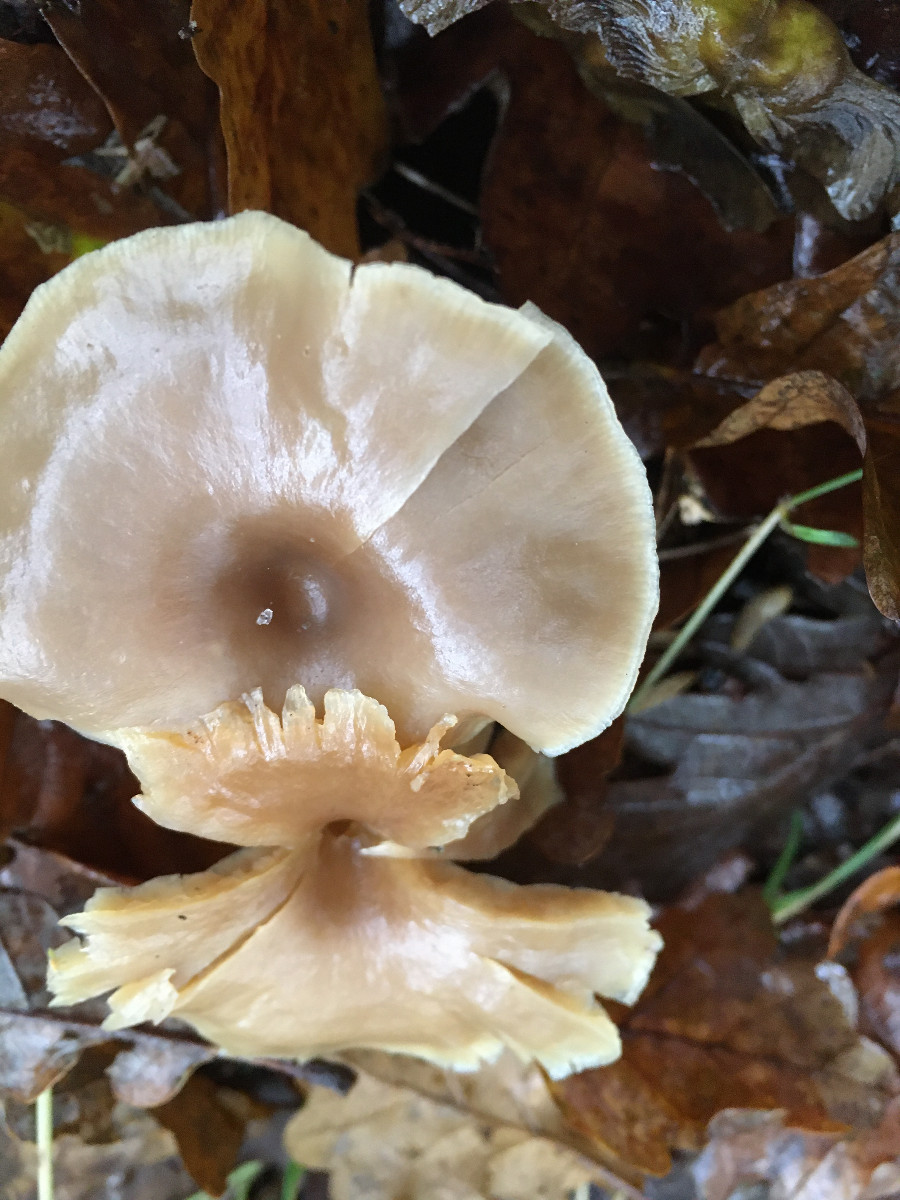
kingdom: Fungi
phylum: Basidiomycota
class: Agaricomycetes
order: Agaricales
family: Tricholomataceae
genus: Clitocybe
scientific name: Clitocybe
